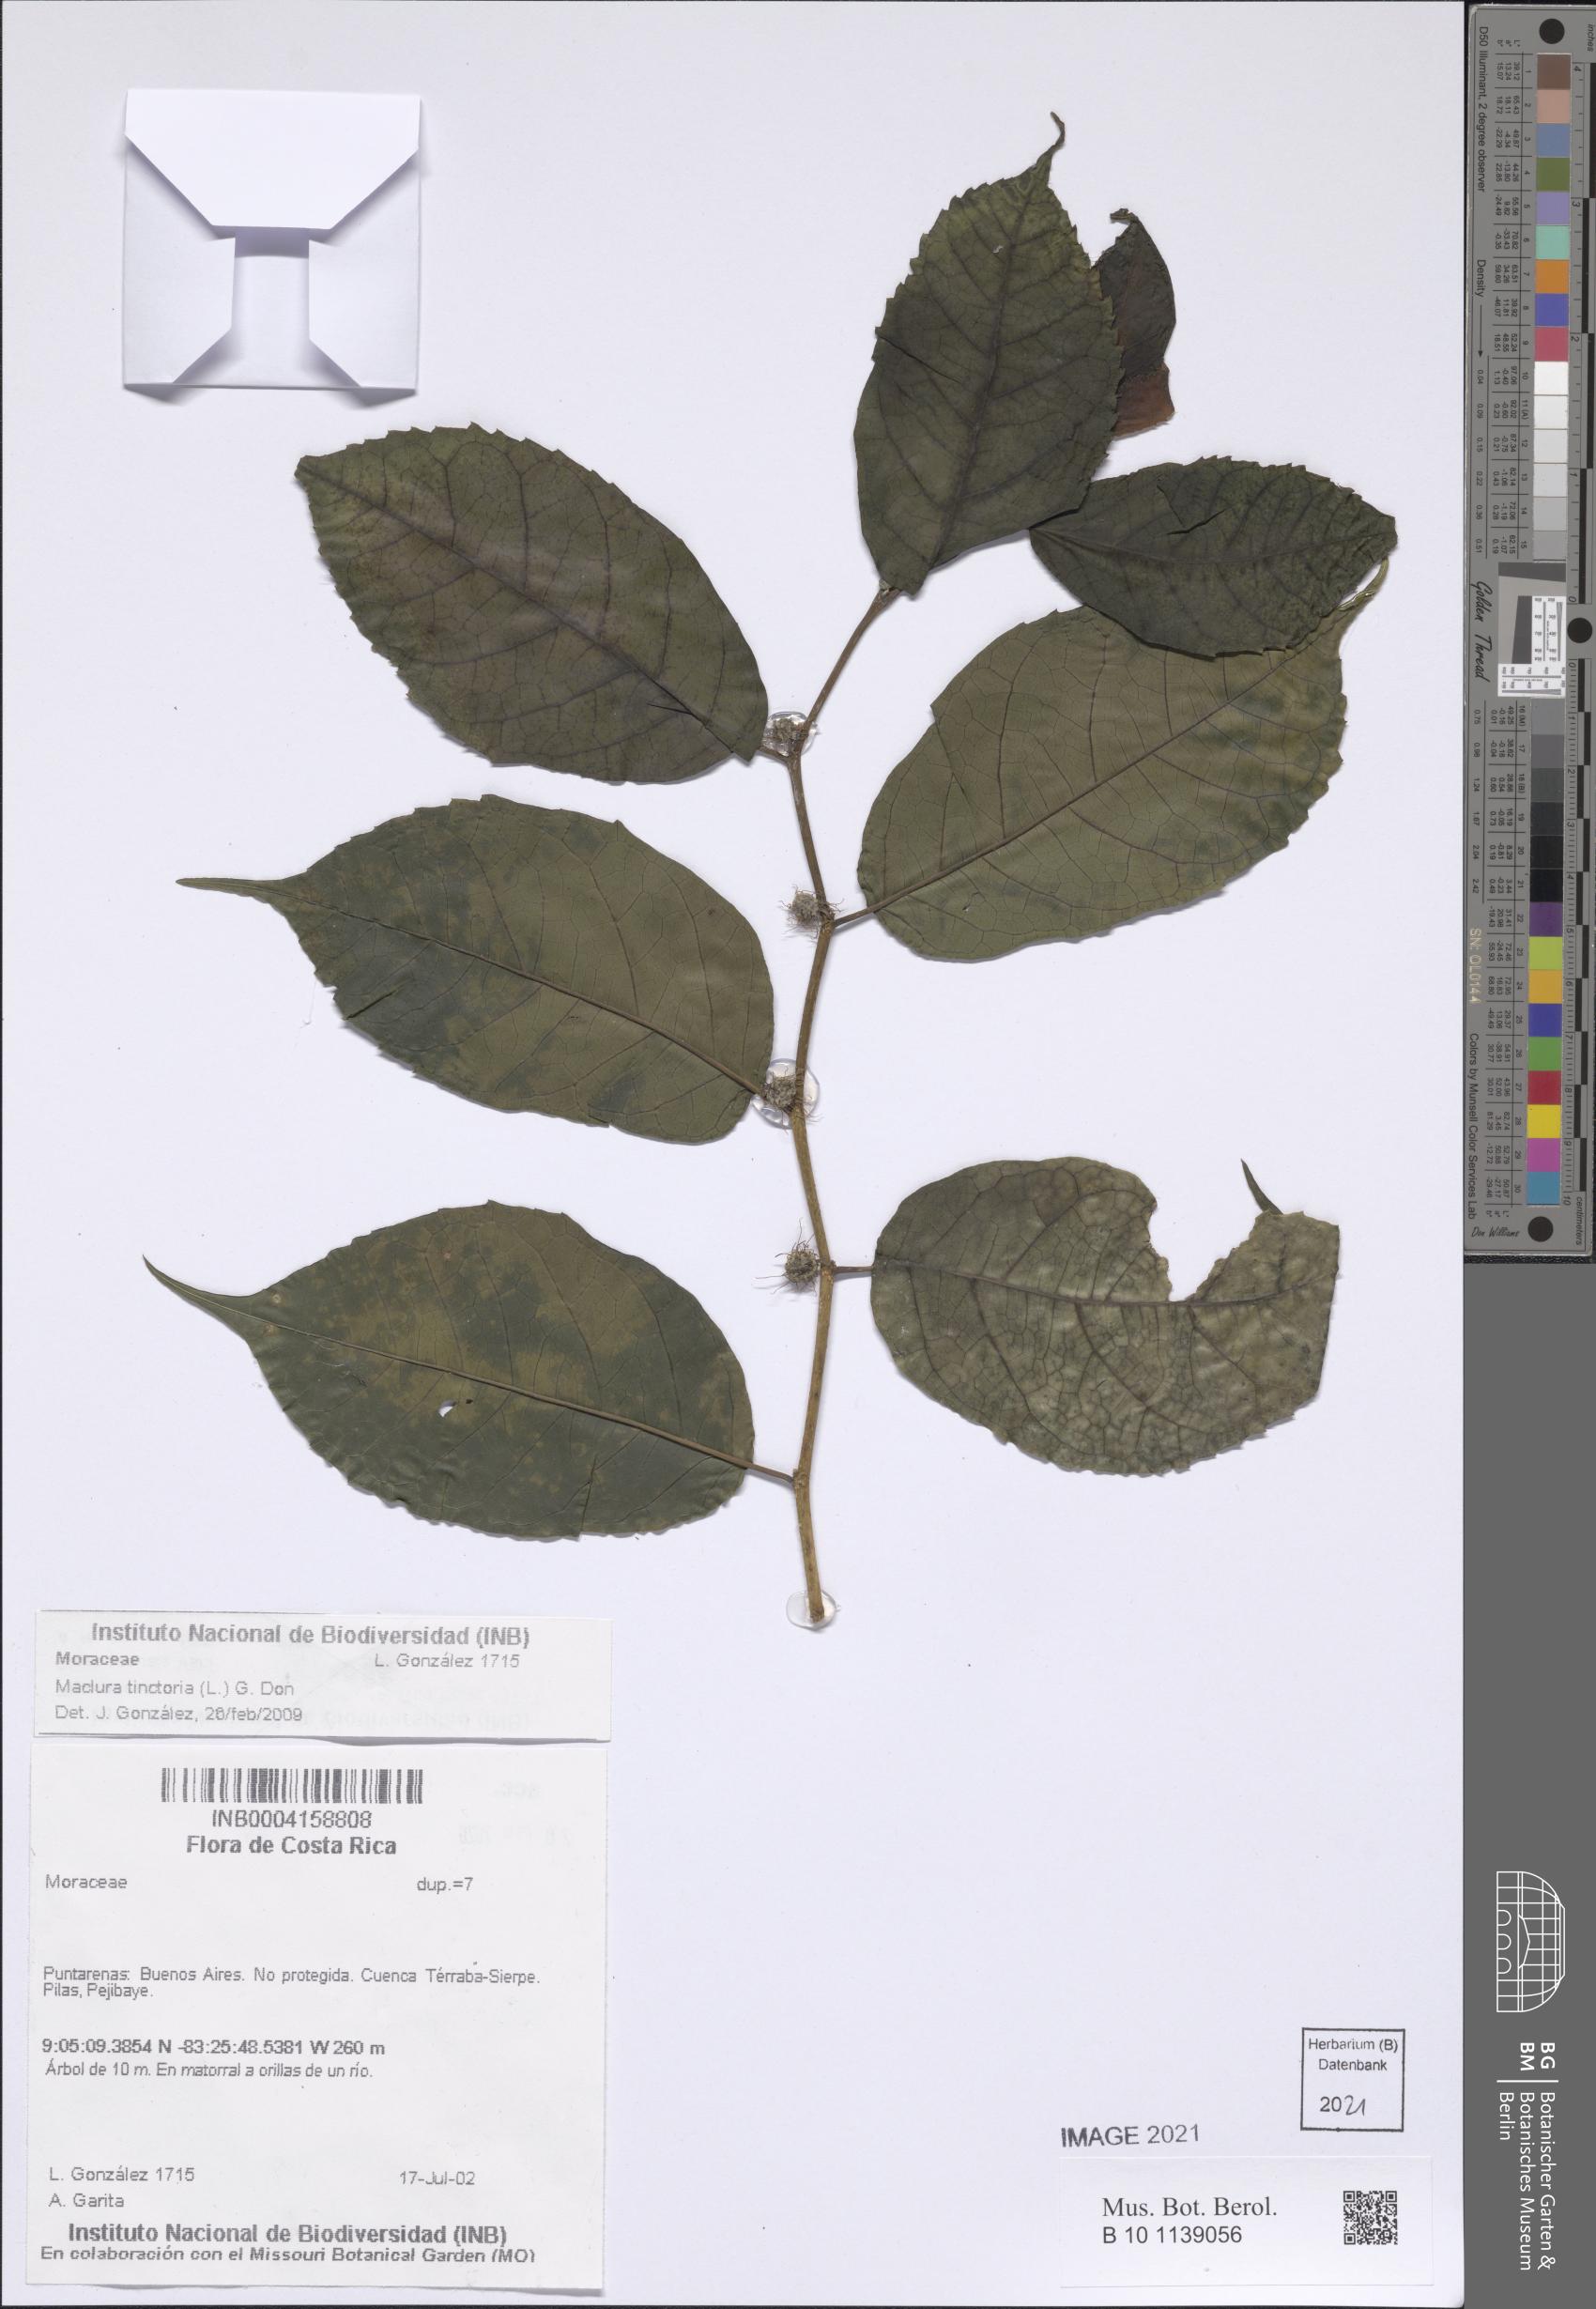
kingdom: Plantae
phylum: Tracheophyta
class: Magnoliopsida
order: Rosales
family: Moraceae
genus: Maclura
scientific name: Maclura tinctoria
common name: Old fustic
